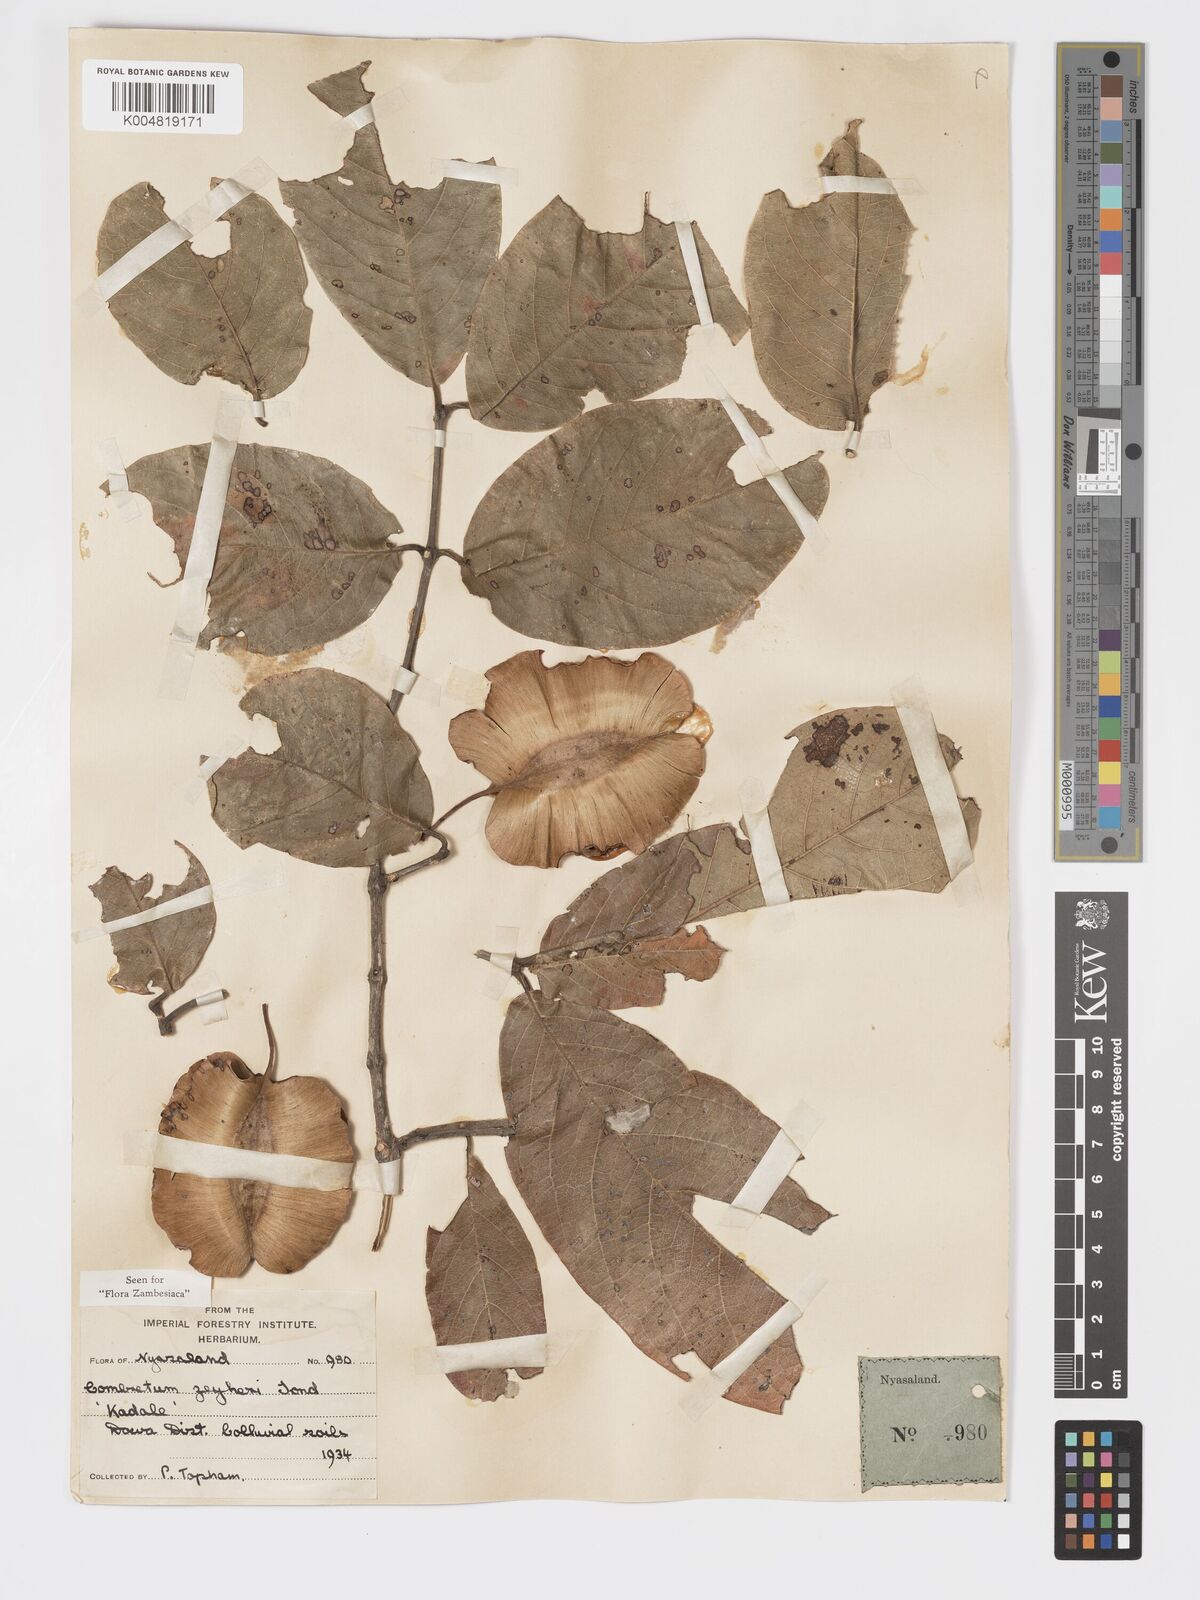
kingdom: Plantae
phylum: Tracheophyta
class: Magnoliopsida
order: Myrtales
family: Combretaceae
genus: Combretum
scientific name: Combretum zeyheri
